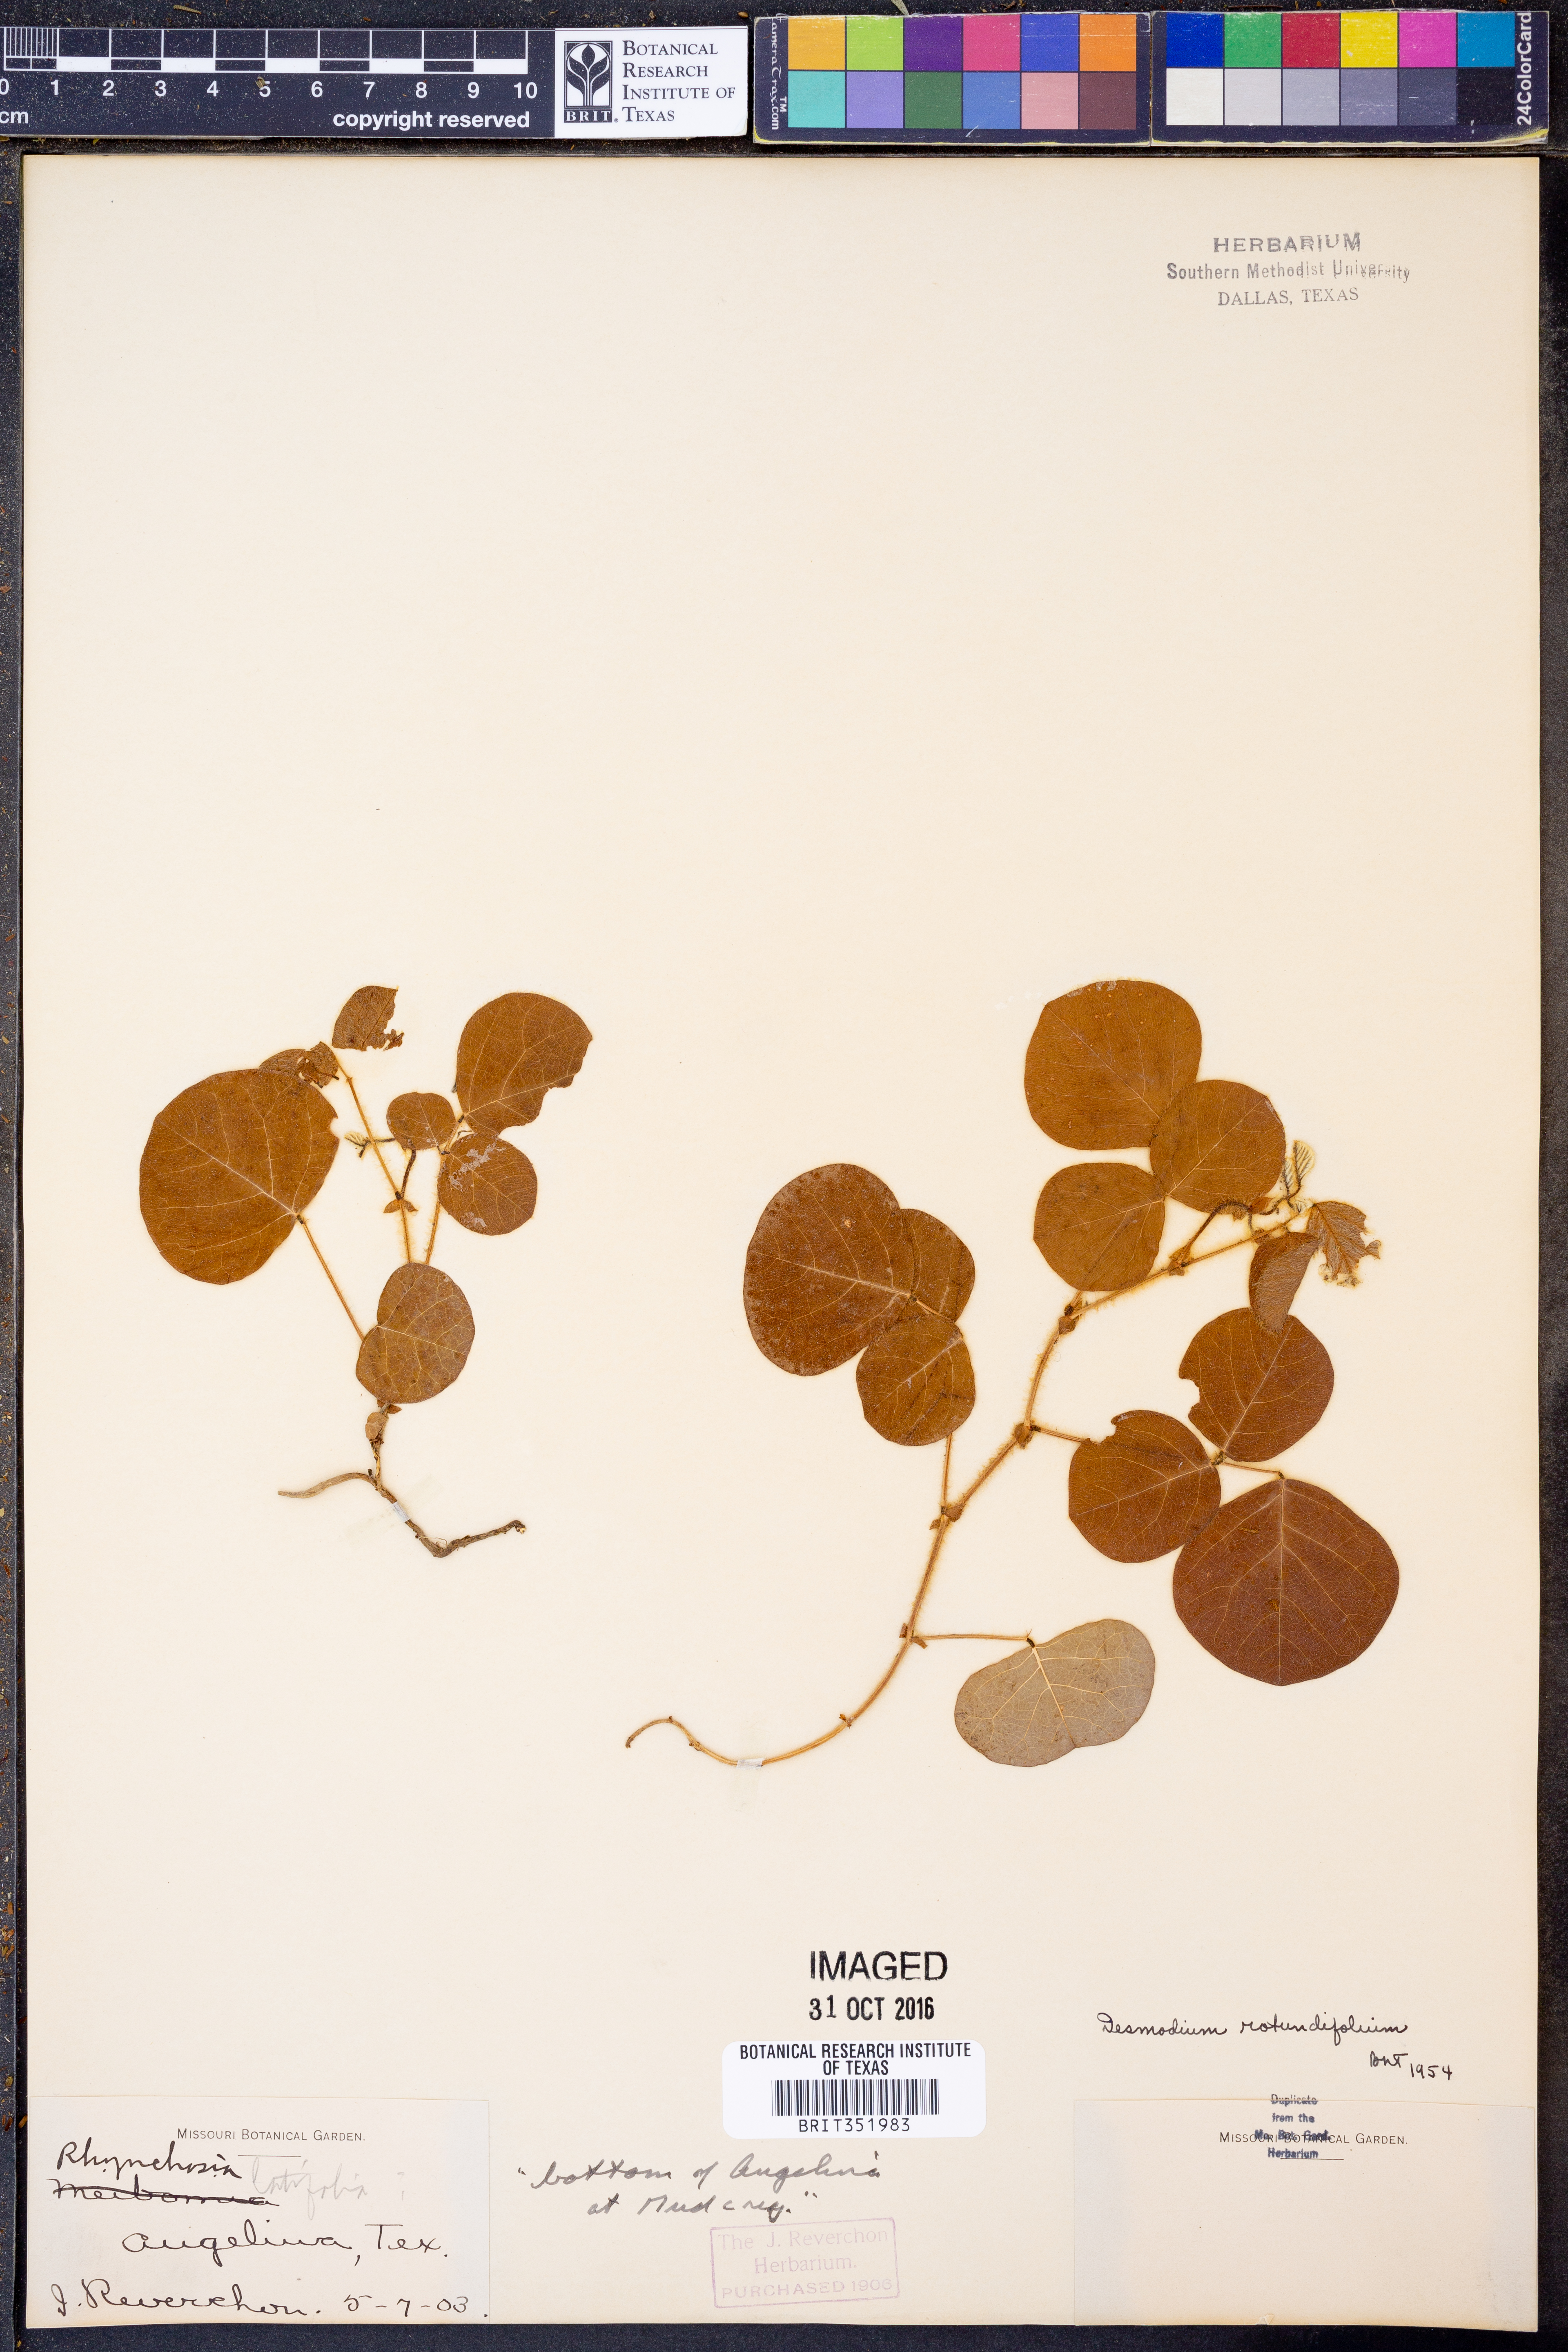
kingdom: Plantae
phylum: Tracheophyta
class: Magnoliopsida
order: Fabales
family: Fabaceae
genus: Desmodium
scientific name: Desmodium rotundifolium
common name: Dollarleaf
